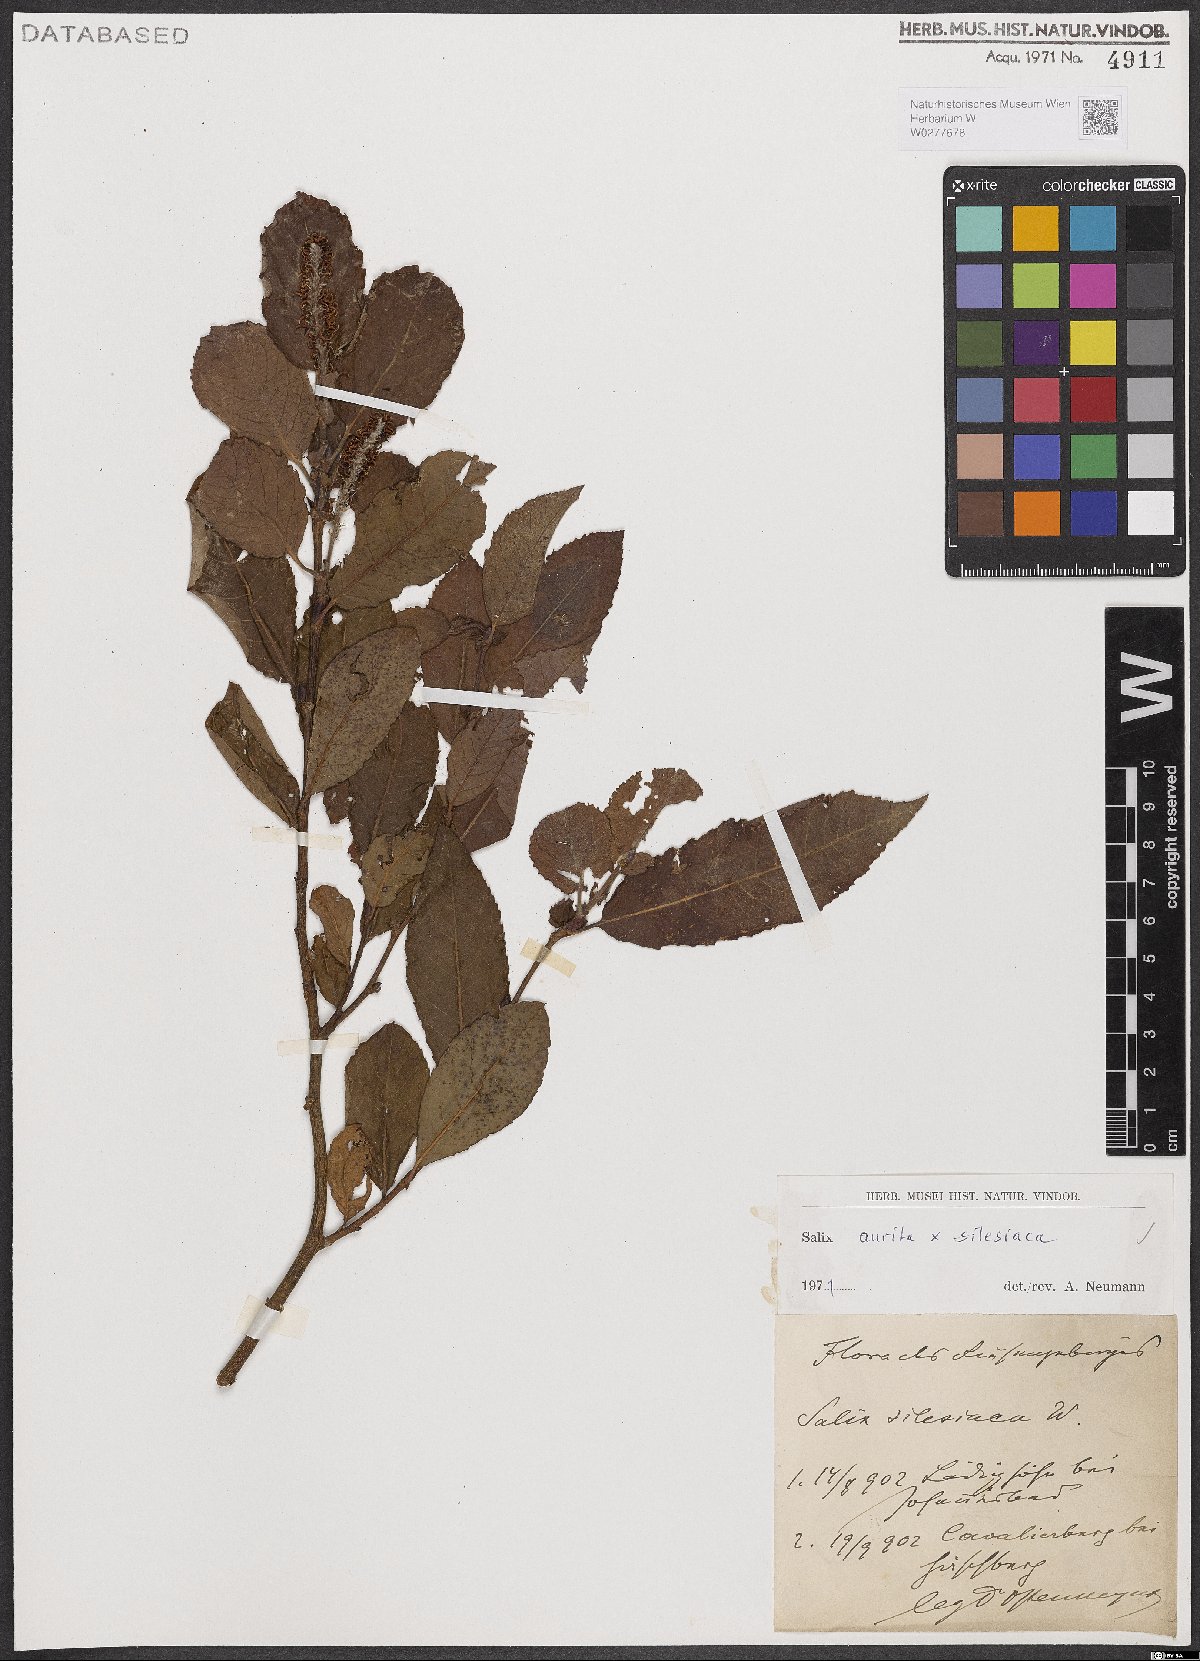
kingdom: Plantae
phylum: Tracheophyta
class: Magnoliopsida
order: Malpighiales
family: Salicaceae
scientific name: Salicaceae
